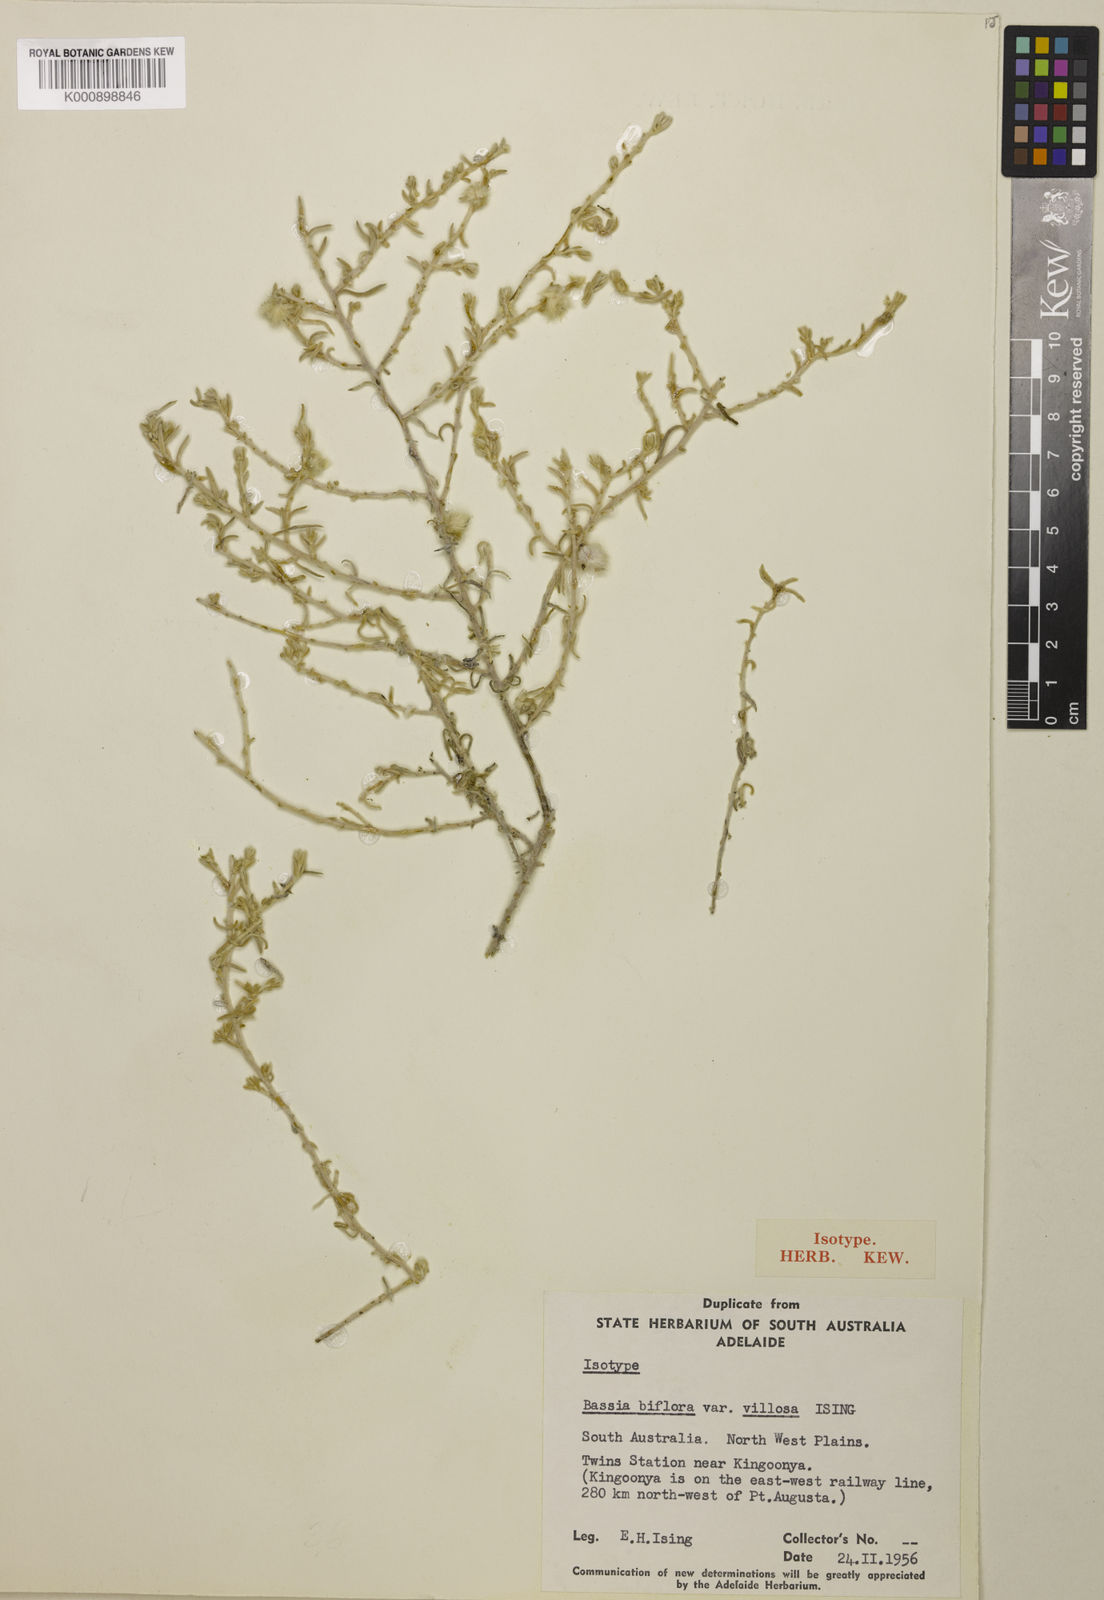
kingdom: Plantae
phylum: Tracheophyta
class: Magnoliopsida
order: Caryophyllales
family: Amaranthaceae
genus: Dissocarpus
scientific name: Dissocarpus biflorus
